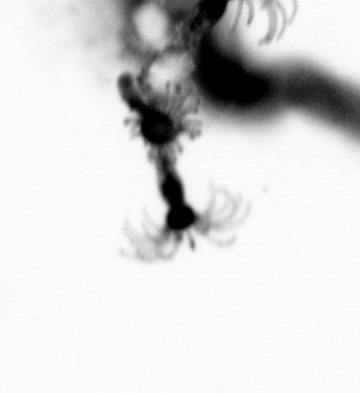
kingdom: Animalia
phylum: Cnidaria
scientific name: Cnidaria
